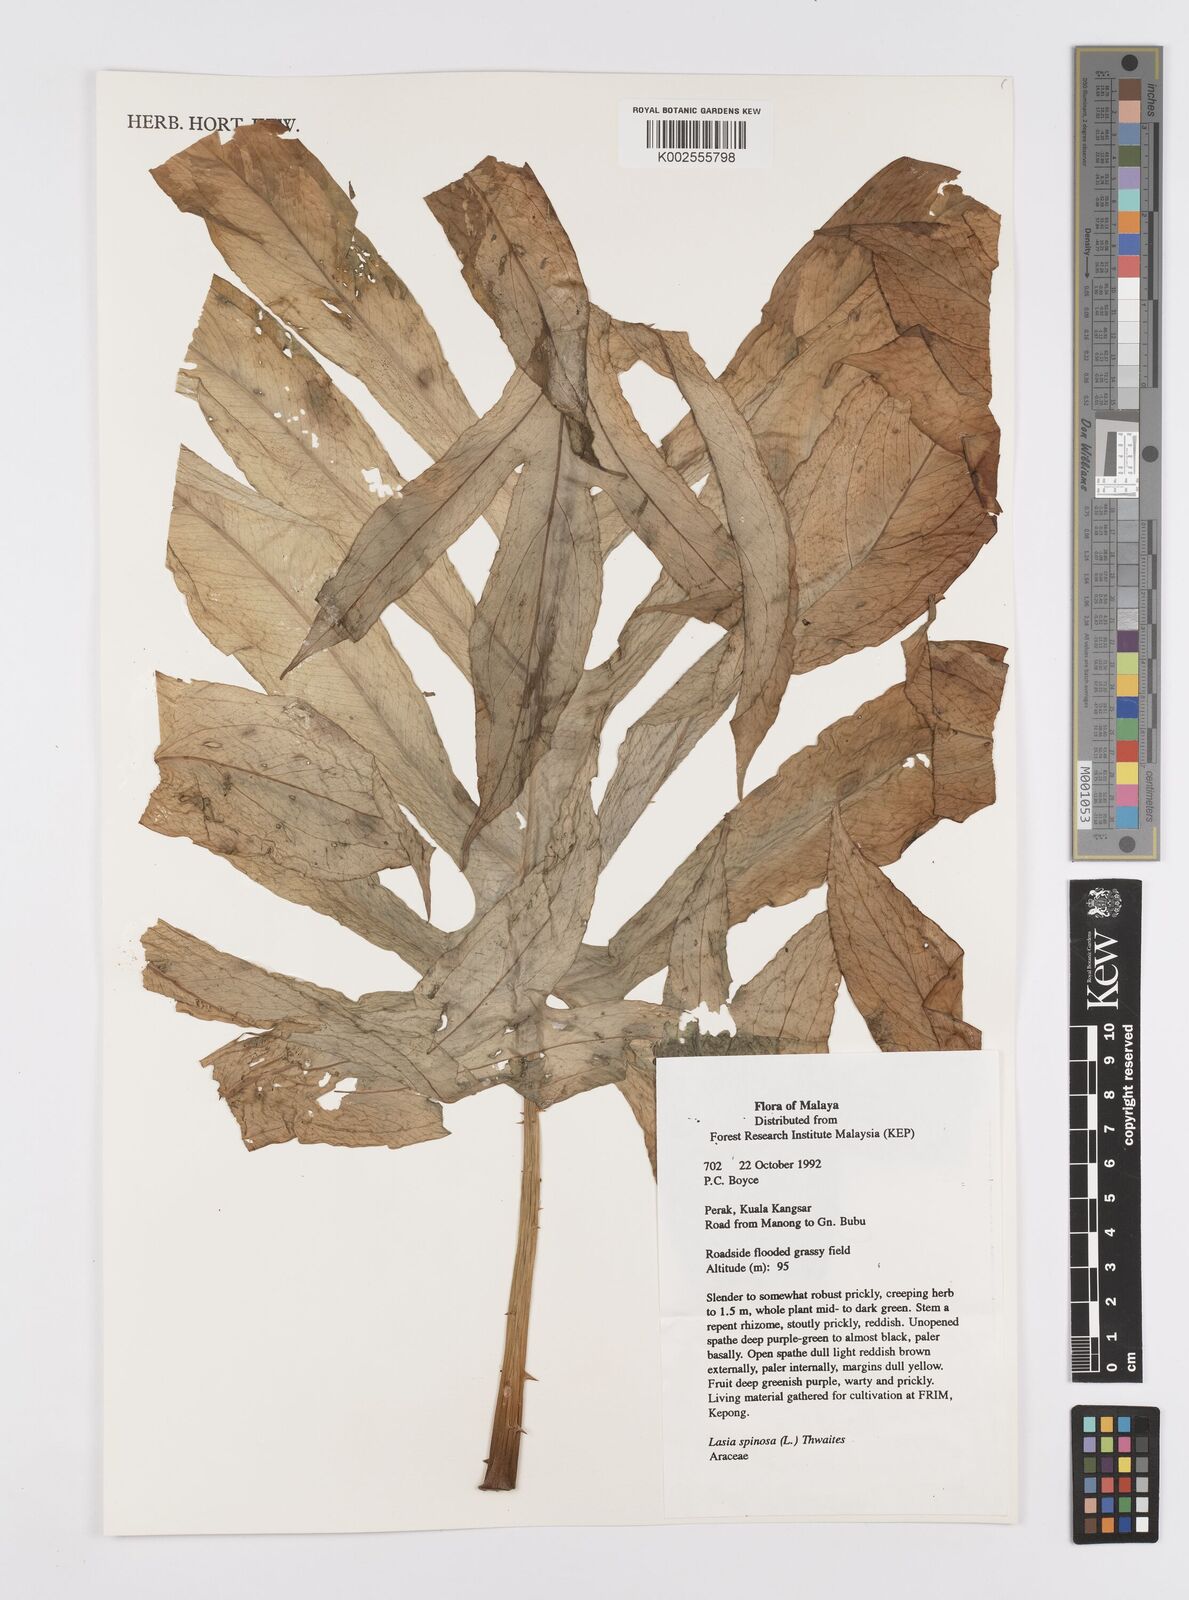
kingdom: Plantae
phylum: Tracheophyta
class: Liliopsida
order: Alismatales
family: Araceae
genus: Lasia
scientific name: Lasia spinosa
